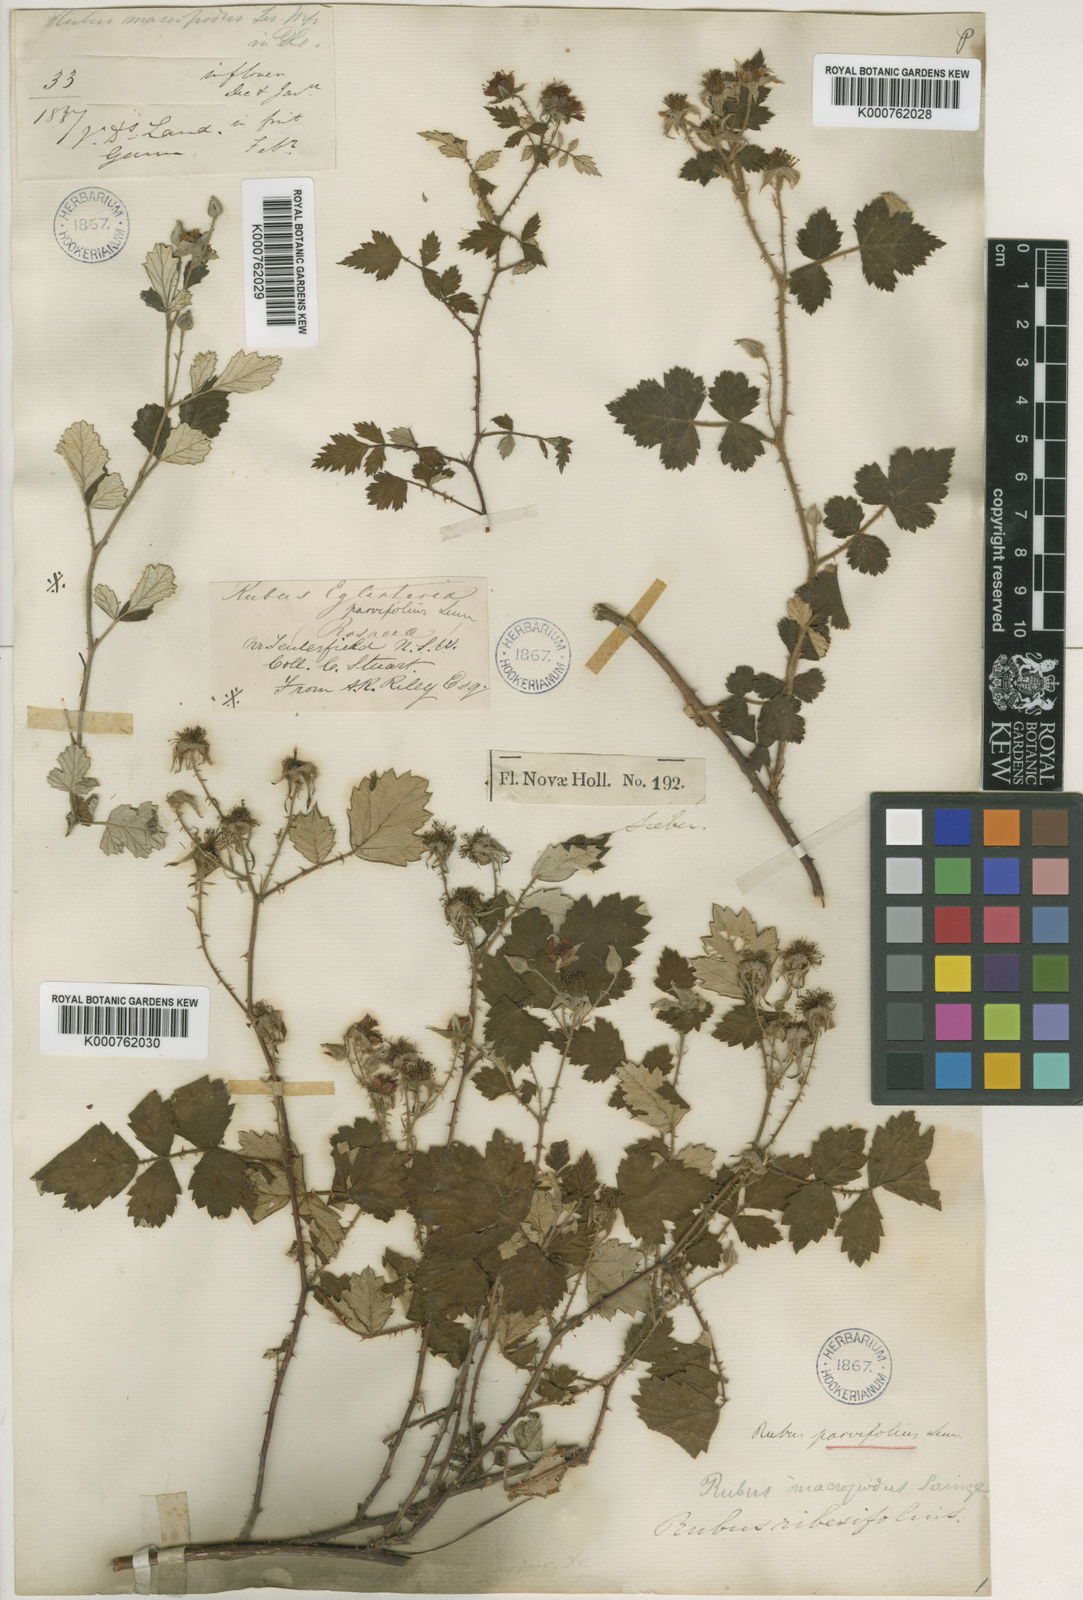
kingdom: Plantae
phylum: Tracheophyta
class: Magnoliopsida
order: Rosales
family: Rosaceae
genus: Rubus
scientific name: Rubus parvifolius
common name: Threeleaf blackberry
